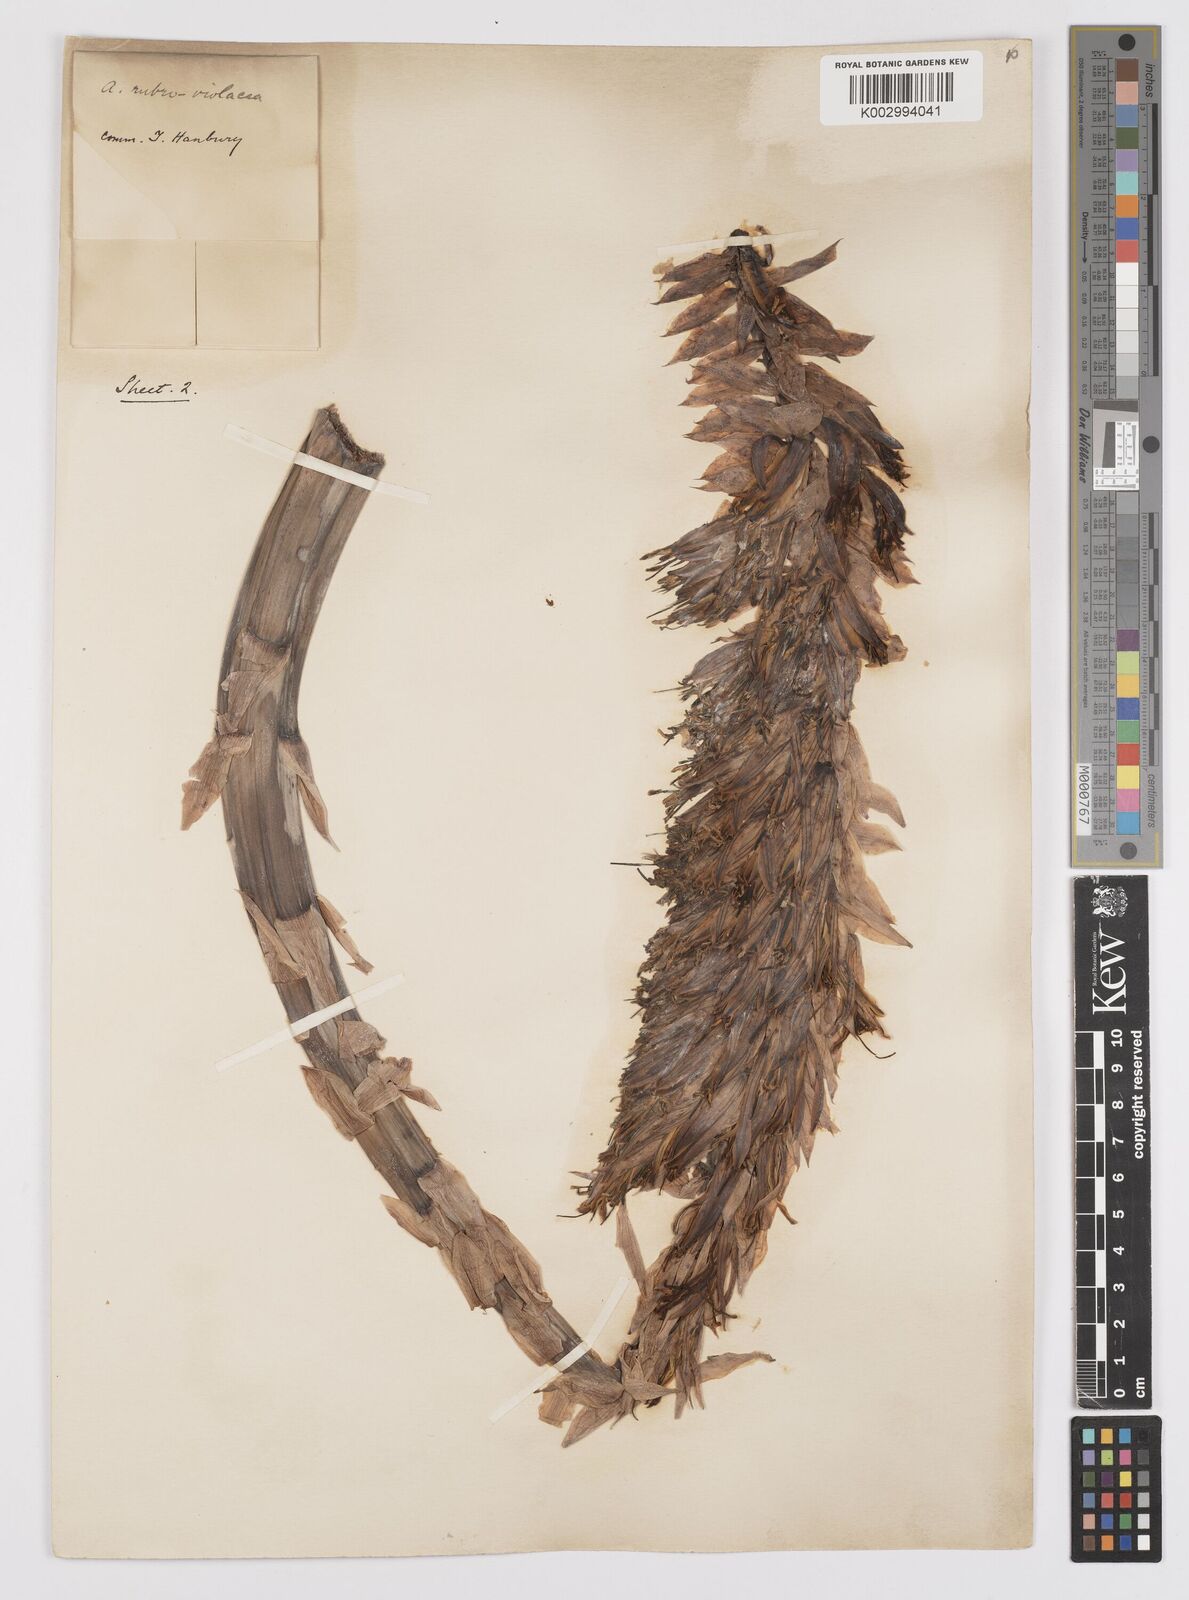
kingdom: Plantae
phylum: Tracheophyta
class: Liliopsida
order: Asparagales
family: Asphodelaceae
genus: Aloe
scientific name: Aloe rubroviolacea
